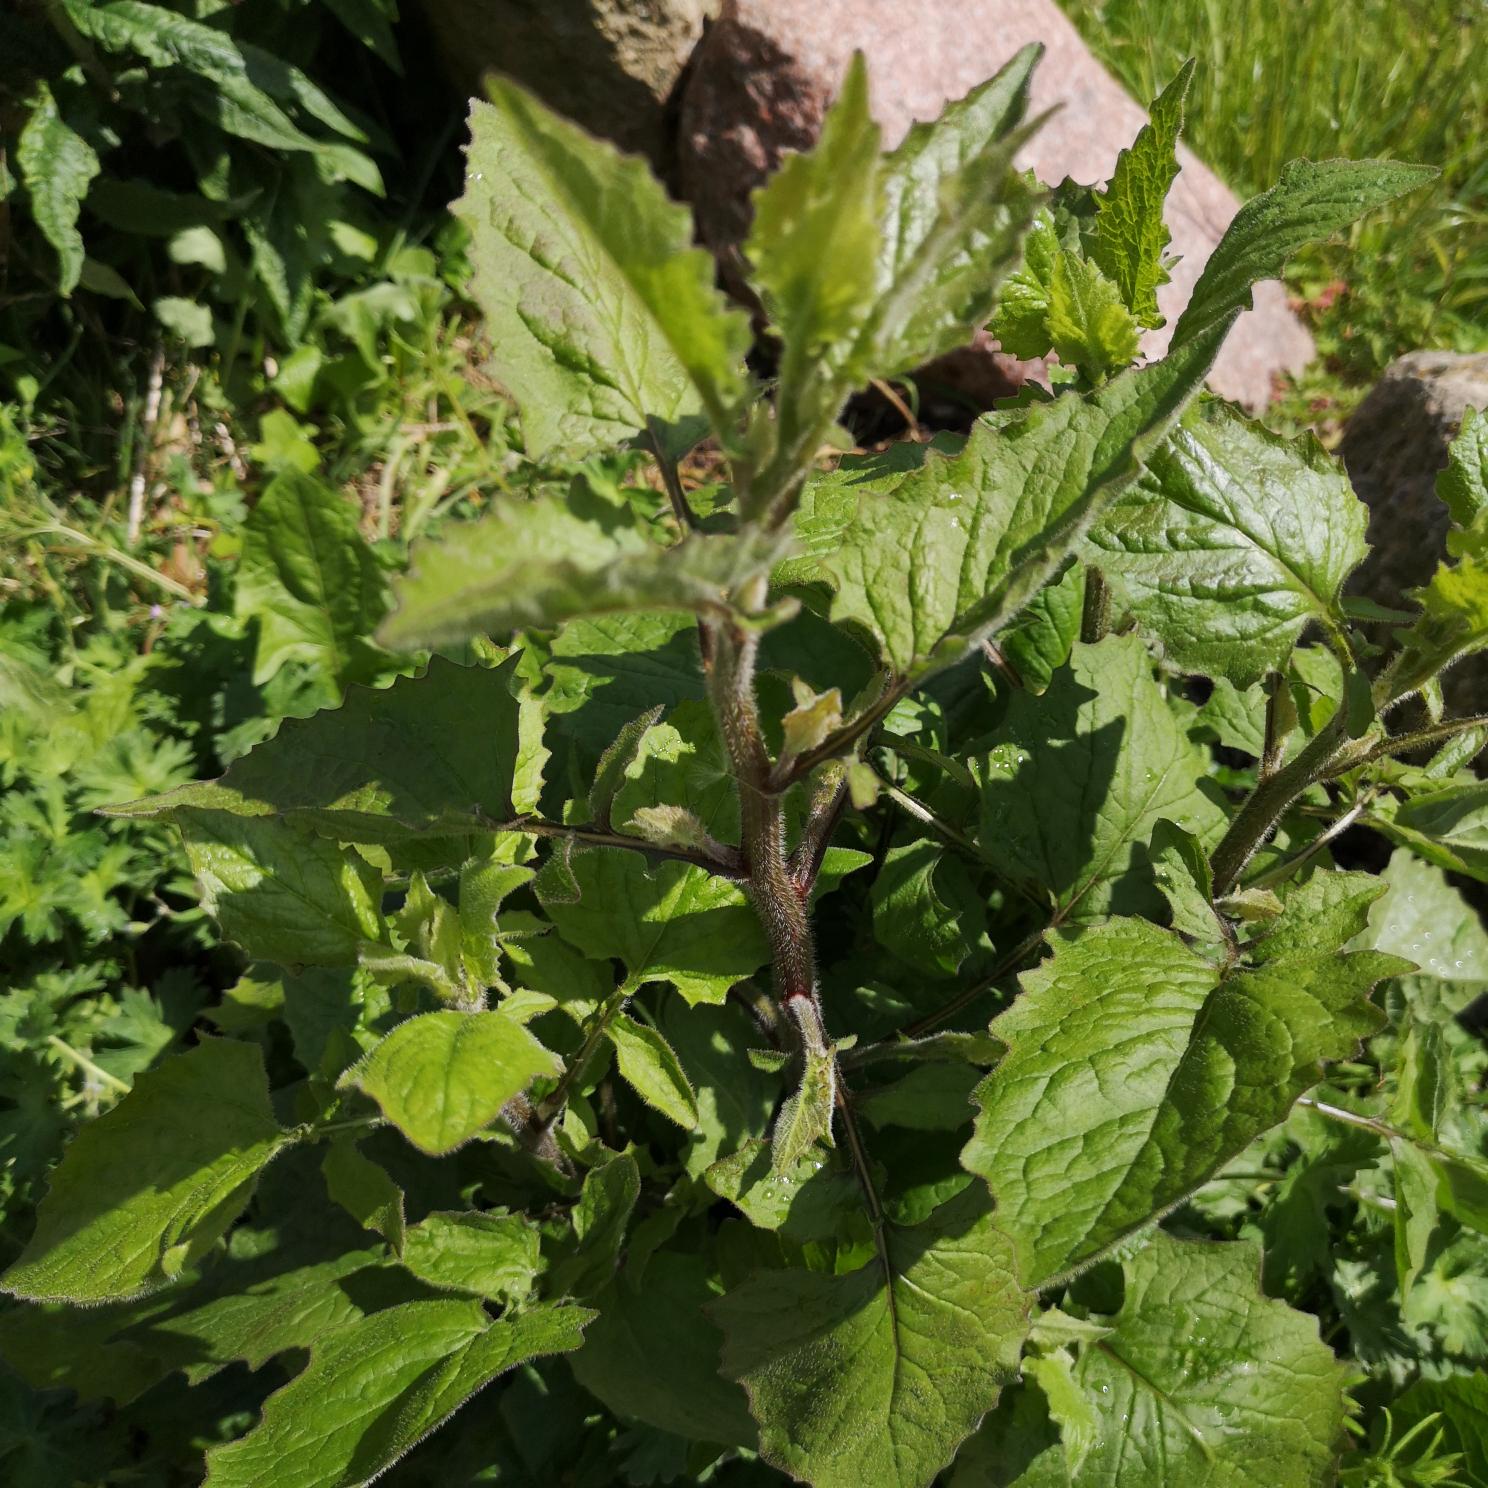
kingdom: Plantae
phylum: Tracheophyta
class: Magnoliopsida
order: Asterales
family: Asteraceae
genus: Lapsana
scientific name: Lapsana communis
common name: Haremad
